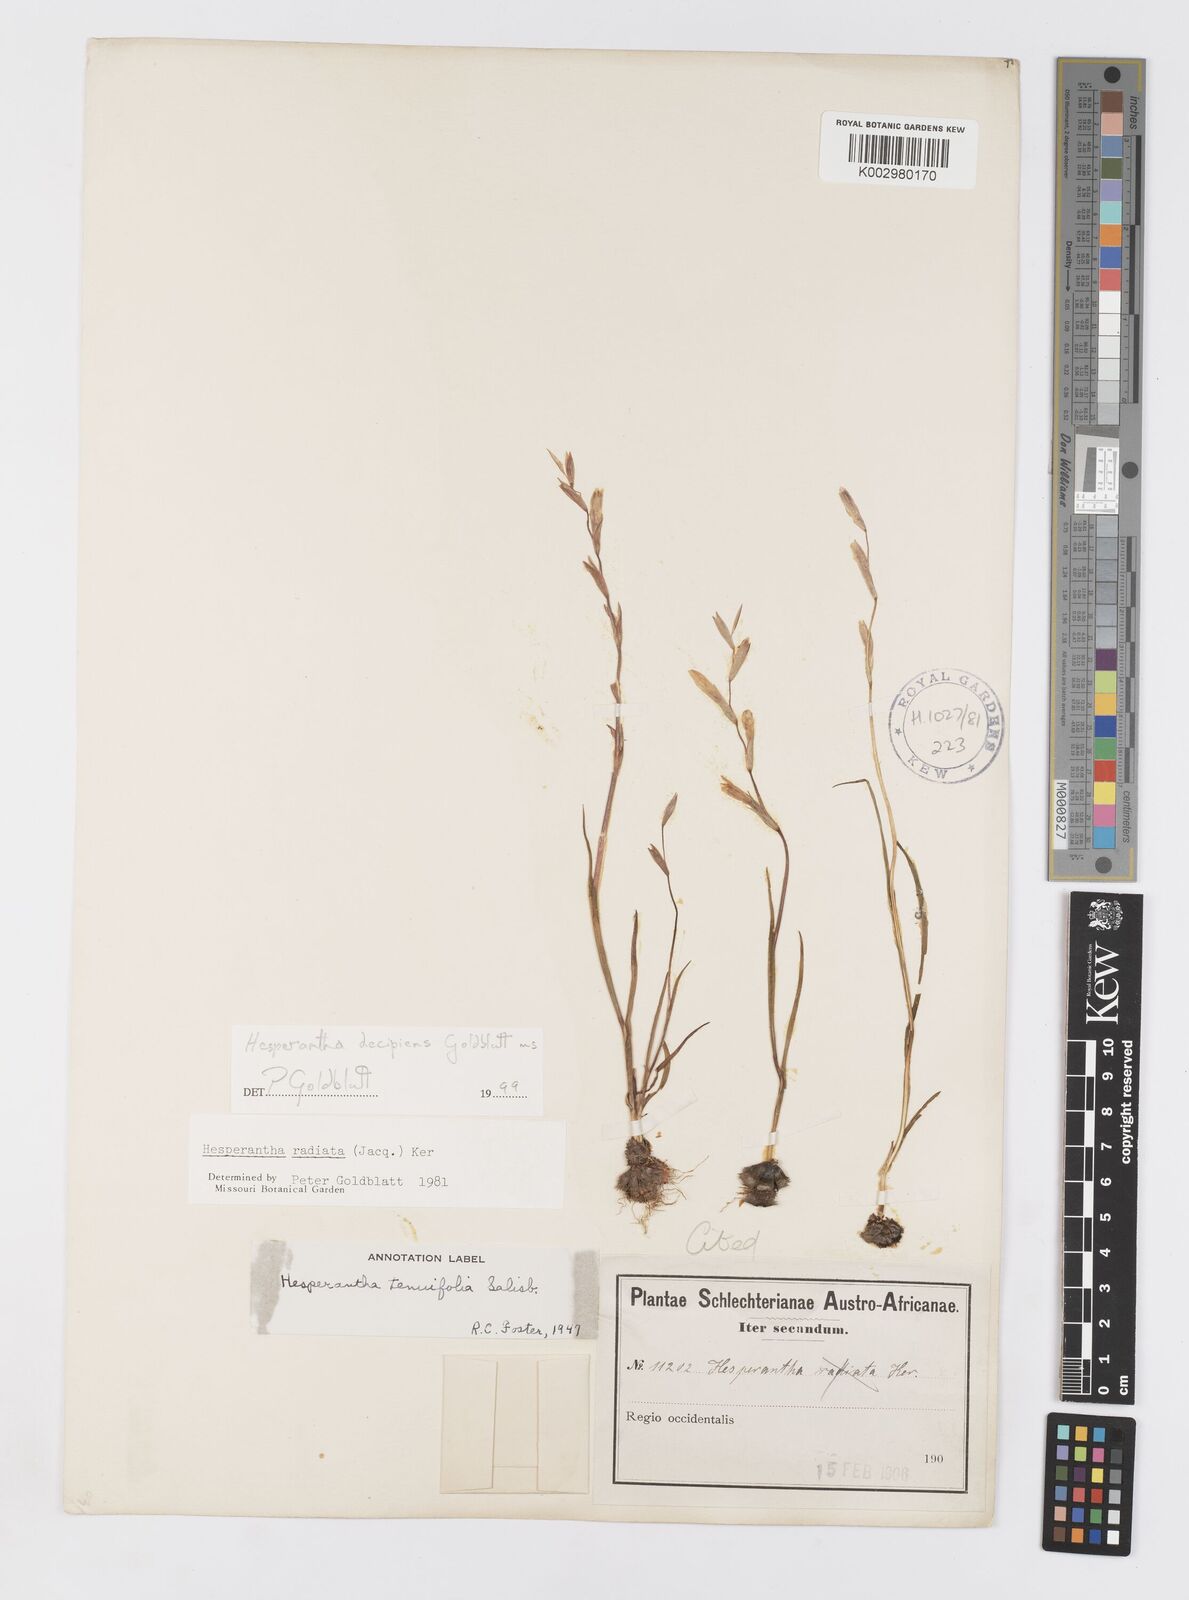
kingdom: Plantae
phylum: Tracheophyta
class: Liliopsida
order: Asparagales
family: Iridaceae
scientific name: Iridaceae
